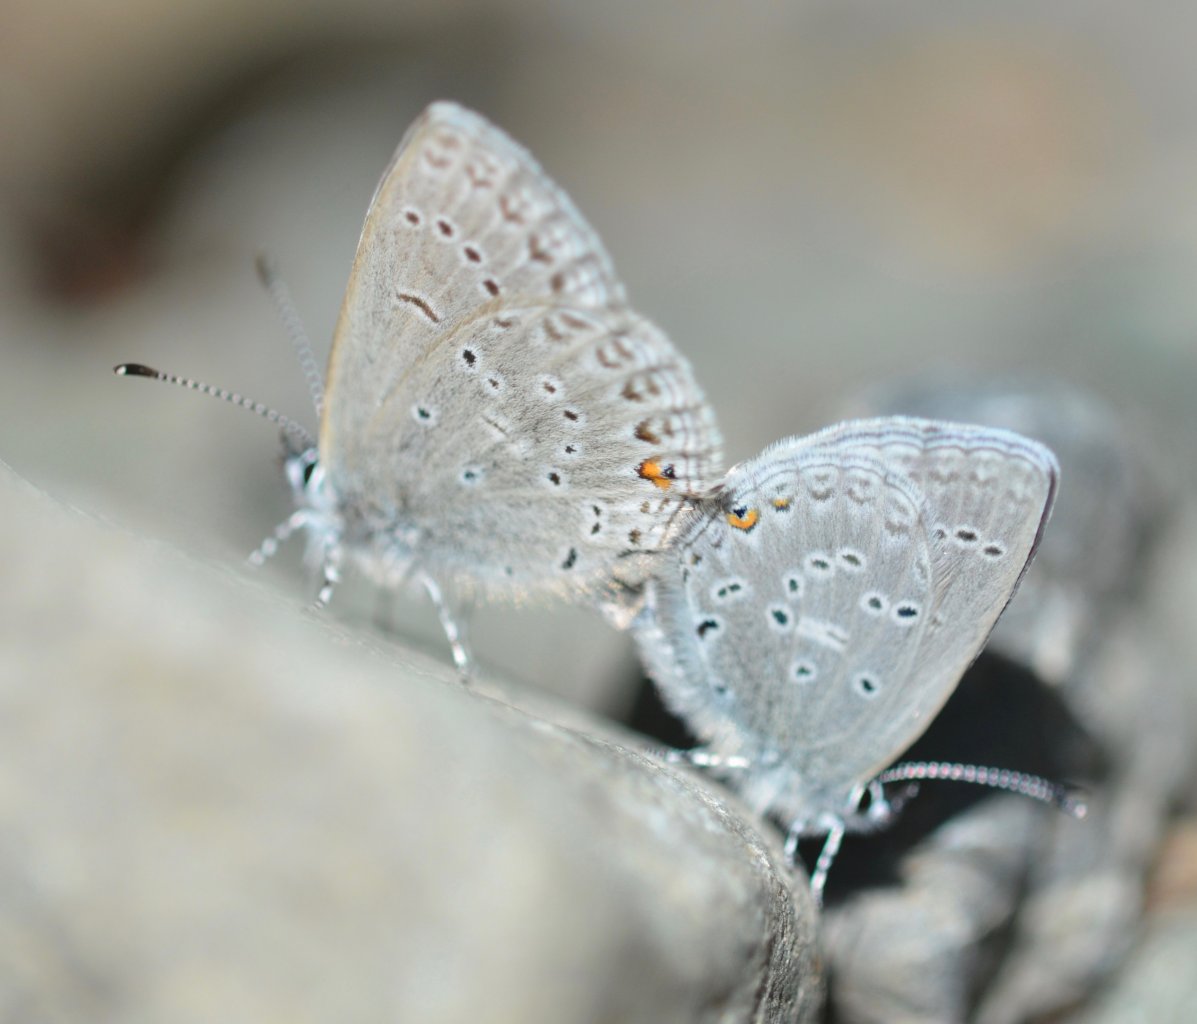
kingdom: Animalia
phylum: Arthropoda
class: Insecta
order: Lepidoptera
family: Lycaenidae
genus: Elkalyce
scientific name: Elkalyce amyntula
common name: Western Tailed-Blue
